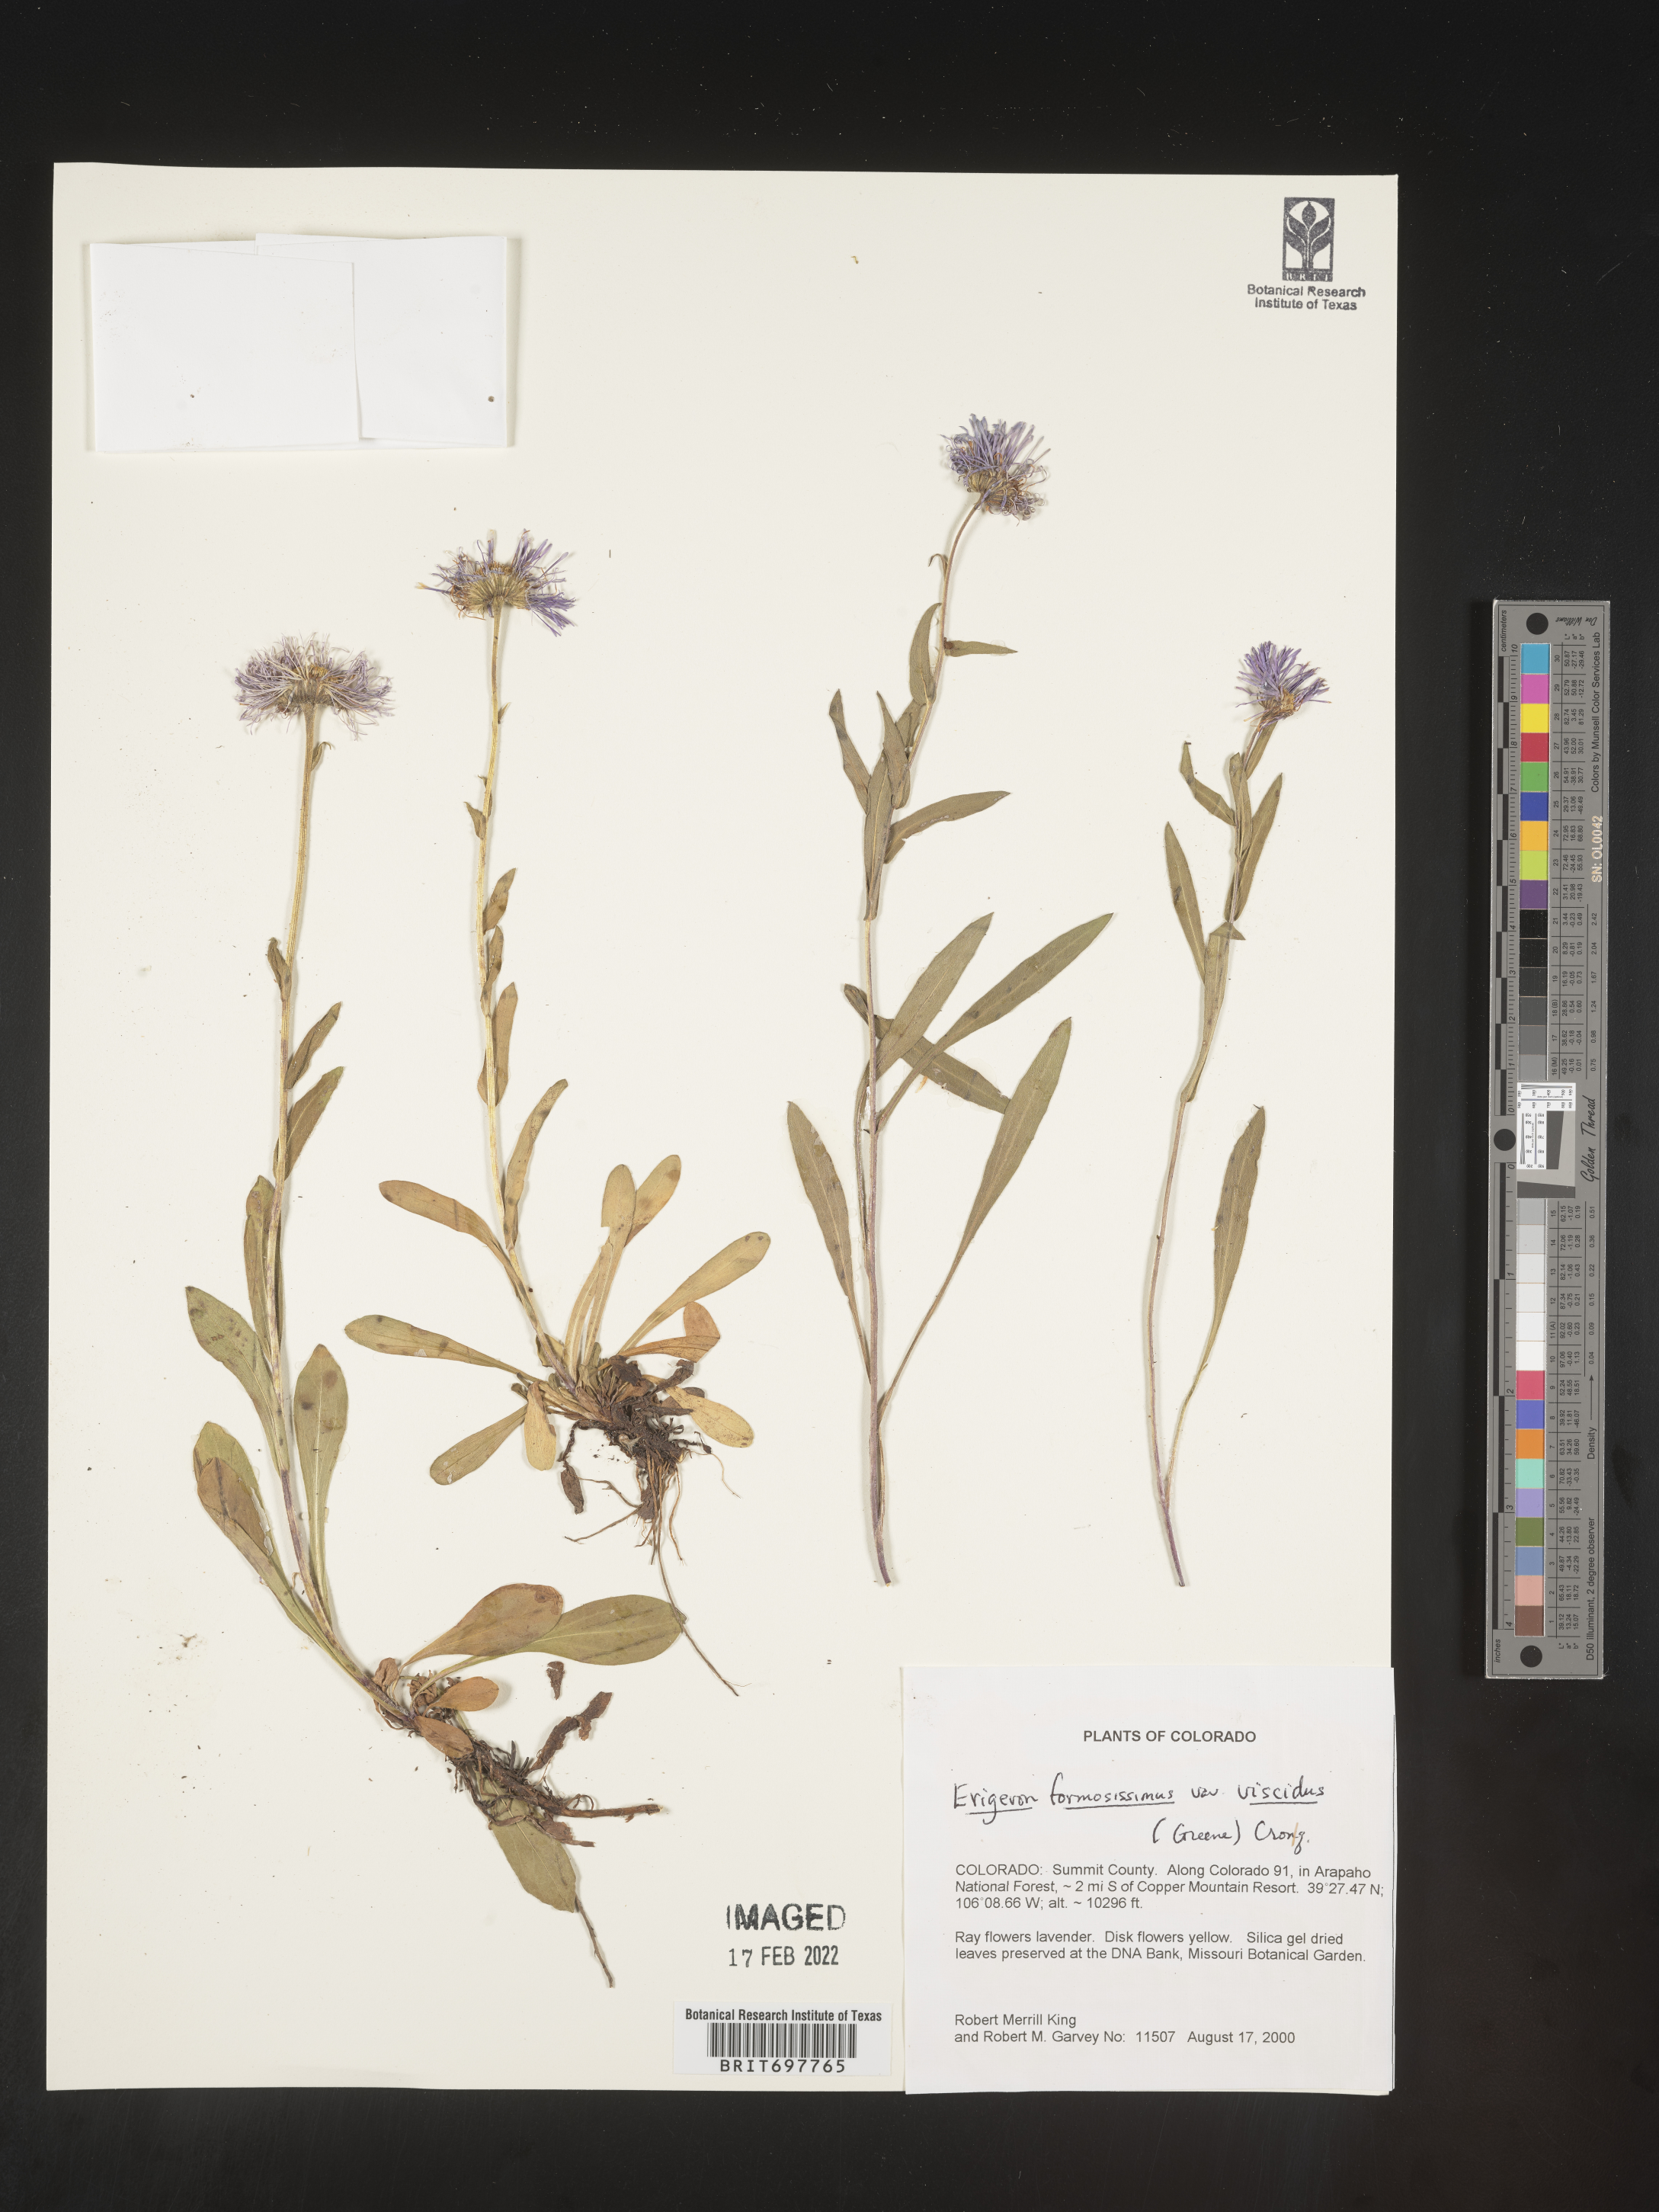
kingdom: Plantae
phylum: Tracheophyta
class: Magnoliopsida
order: Asterales
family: Asteraceae
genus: Erigeron
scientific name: Erigeron formosissimus
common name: Beautiful fleabane
